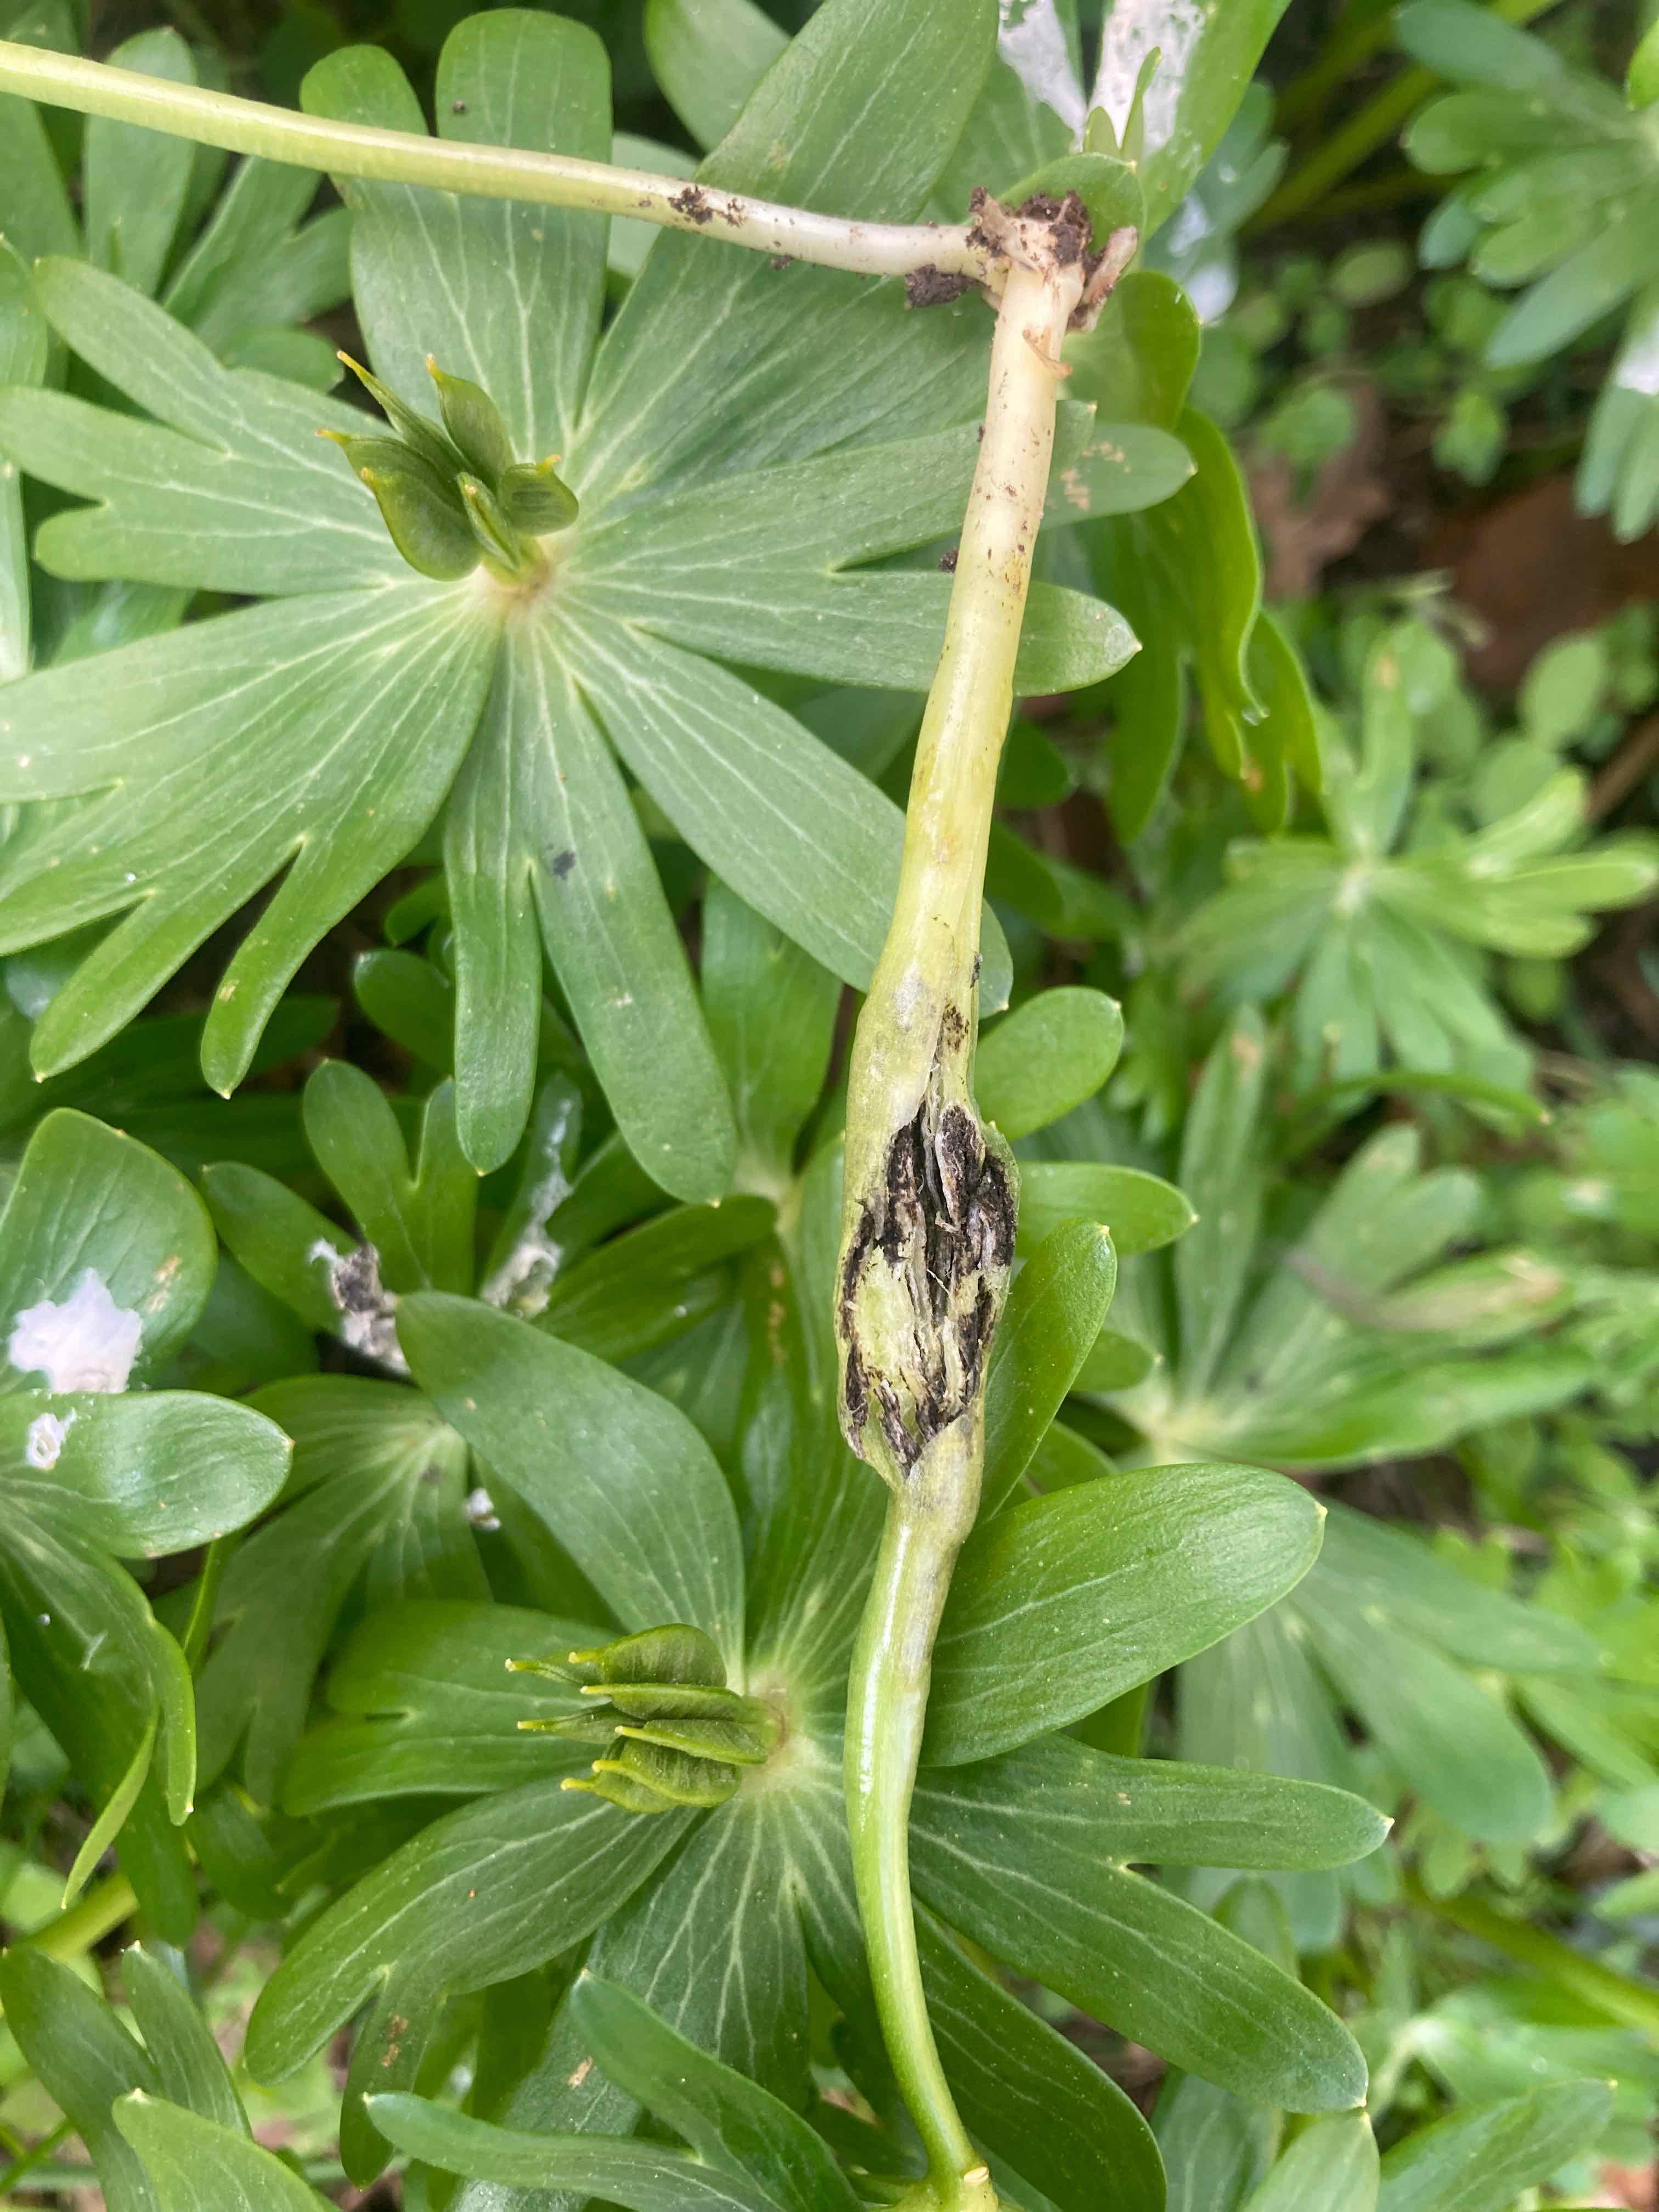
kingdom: Fungi
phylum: Basidiomycota
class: Ustilaginomycetes
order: Urocystidales
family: Urocystidaceae
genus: Urocystis
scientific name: Urocystis eranthidis
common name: erantis-brand
